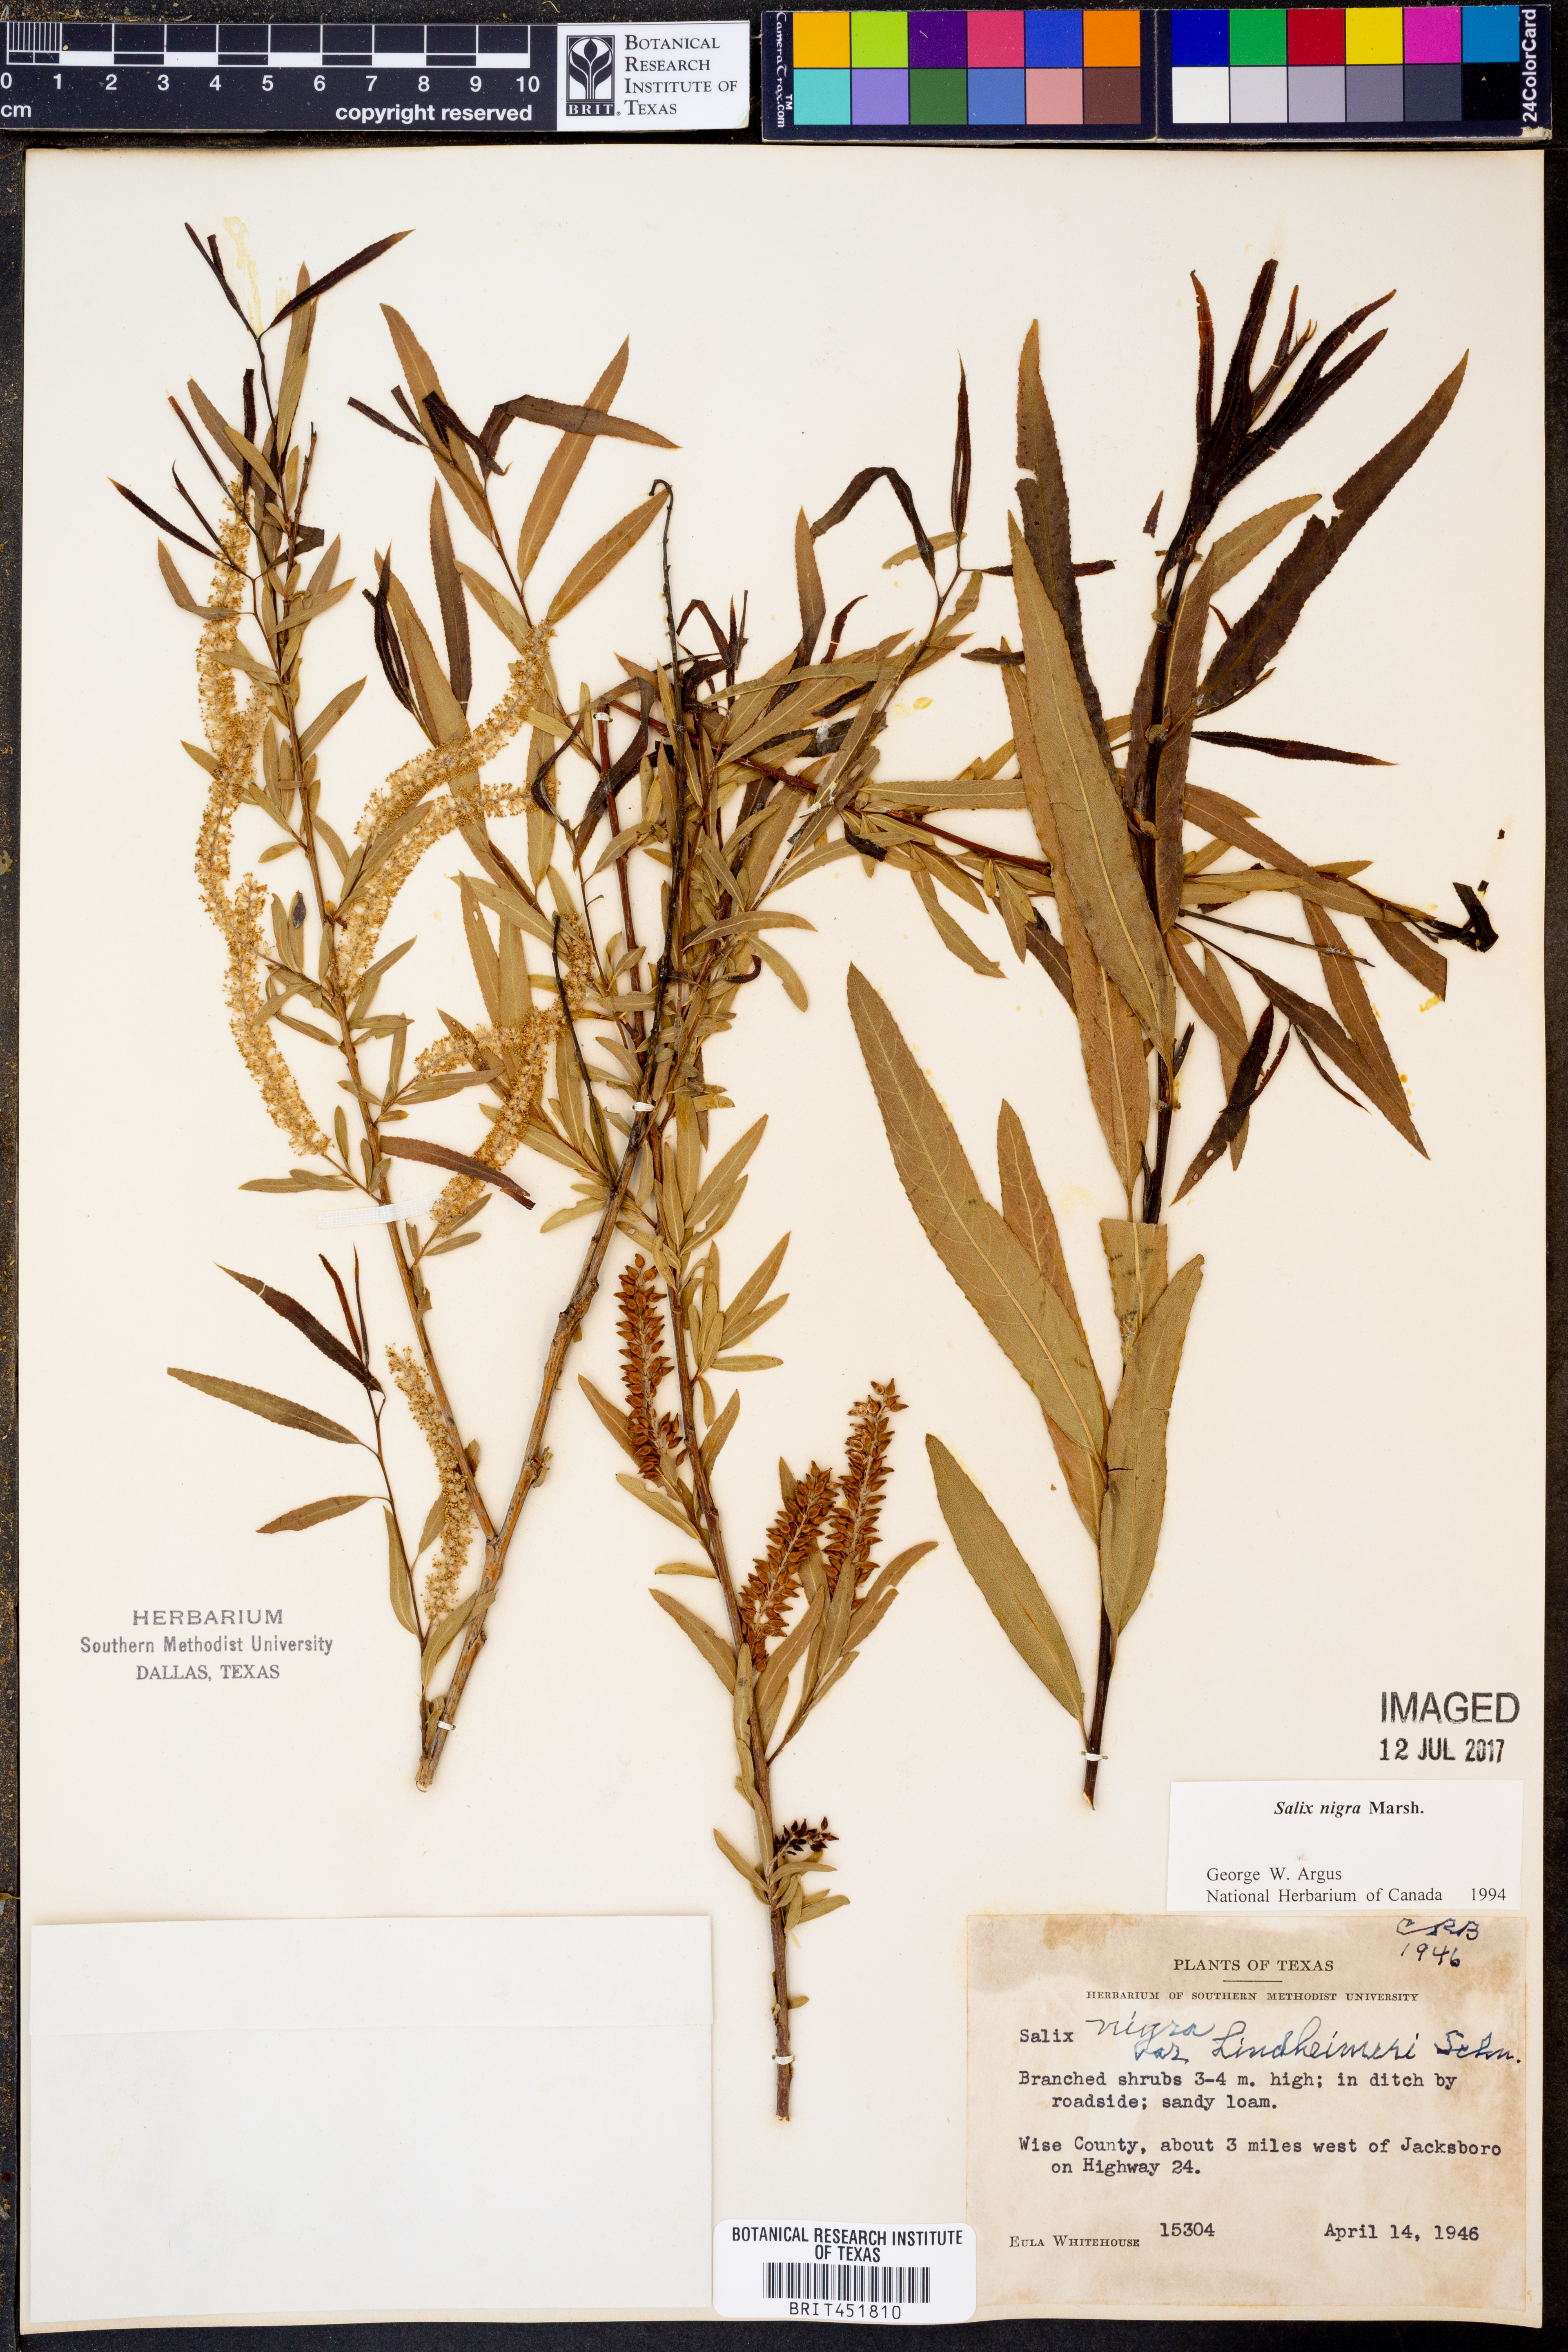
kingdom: Plantae
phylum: Tracheophyta
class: Magnoliopsida
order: Malpighiales
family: Salicaceae
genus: Salix
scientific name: Salix nigra
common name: Black willow
